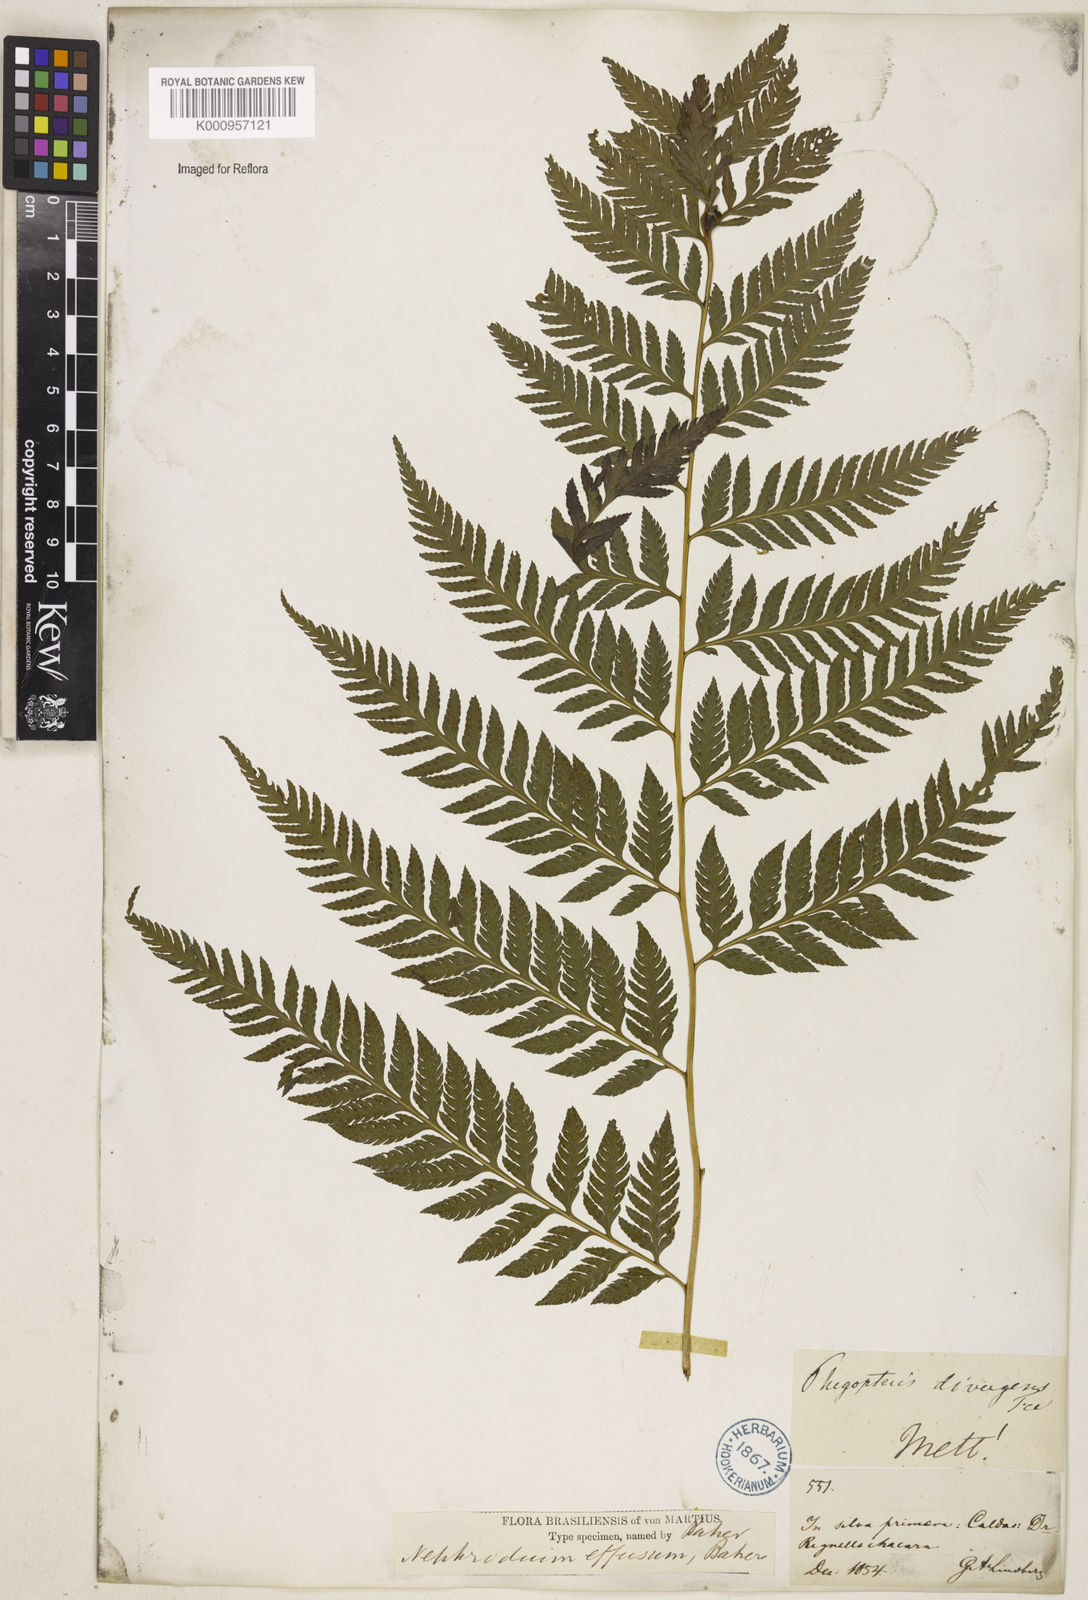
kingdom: Plantae
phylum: Tracheophyta
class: Polypodiopsida
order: Polypodiales
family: Dryopteridaceae
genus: Parapolystichum
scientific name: Parapolystichum effusum
